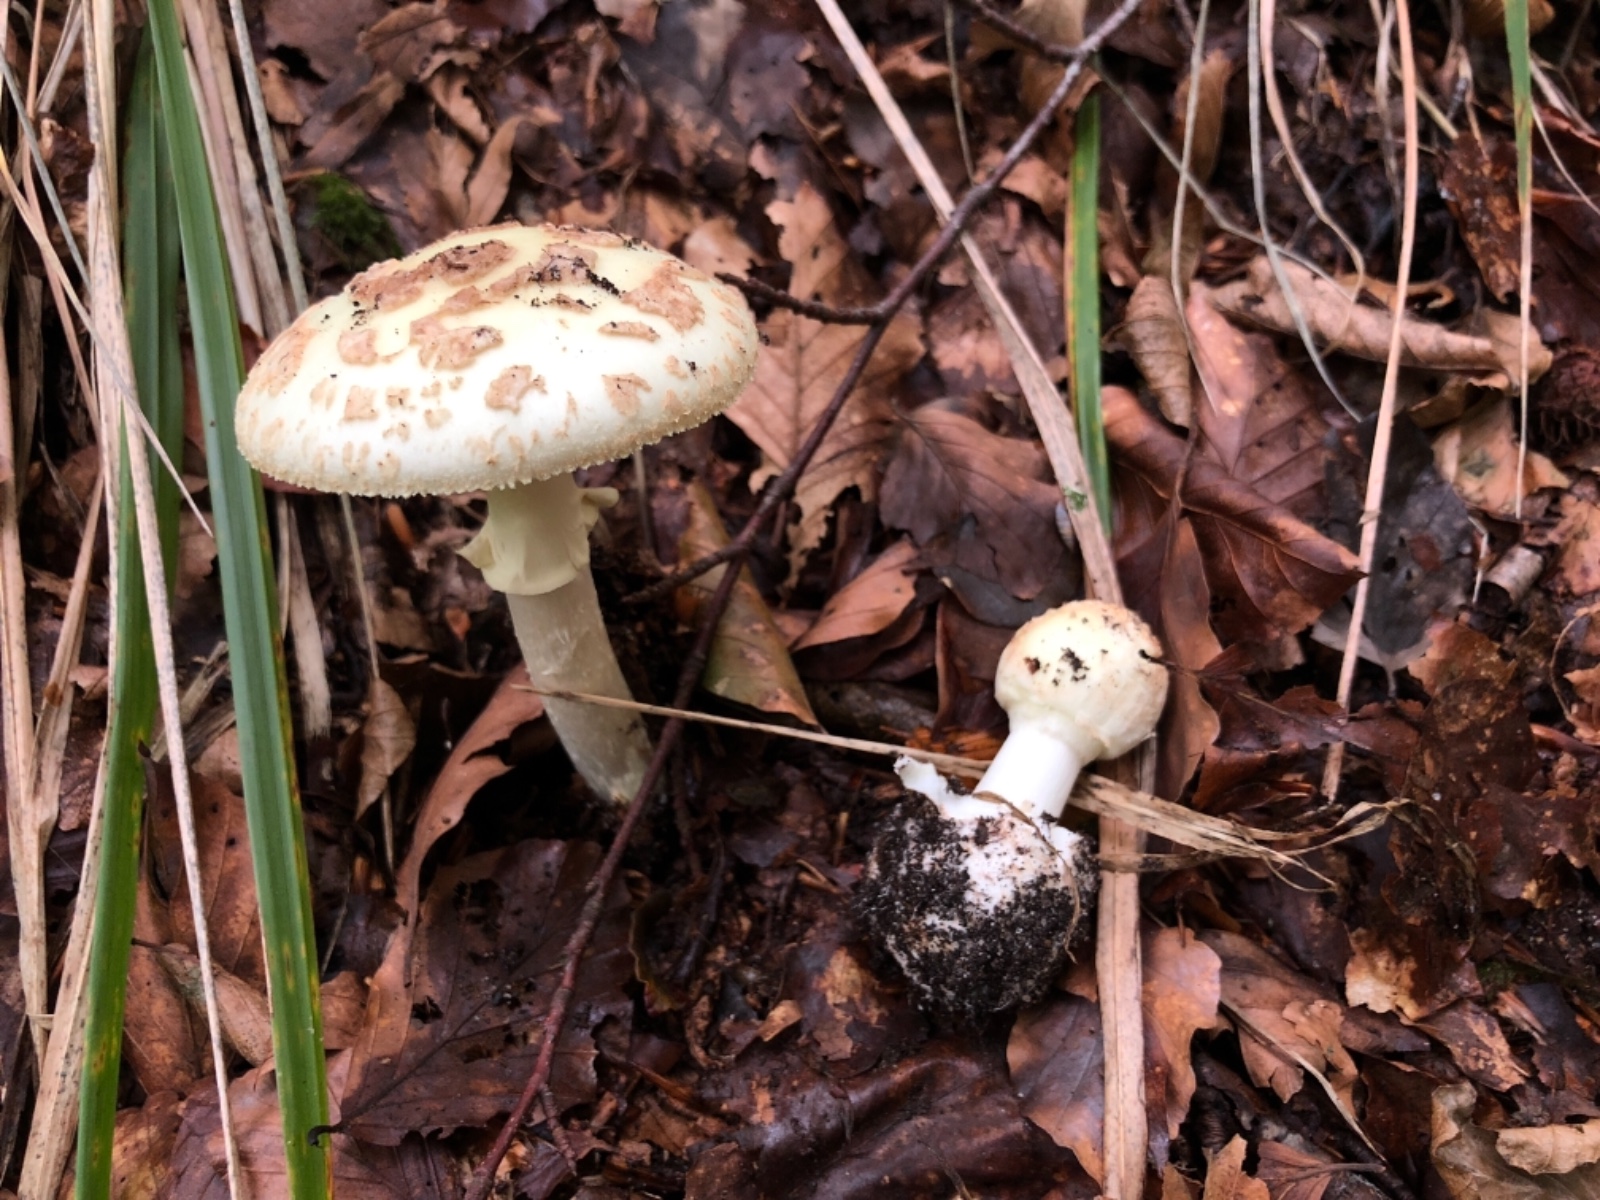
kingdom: Fungi
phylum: Basidiomycota
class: Agaricomycetes
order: Agaricales
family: Amanitaceae
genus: Amanita
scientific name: Amanita citrina
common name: kugleknoldet fluesvamp
